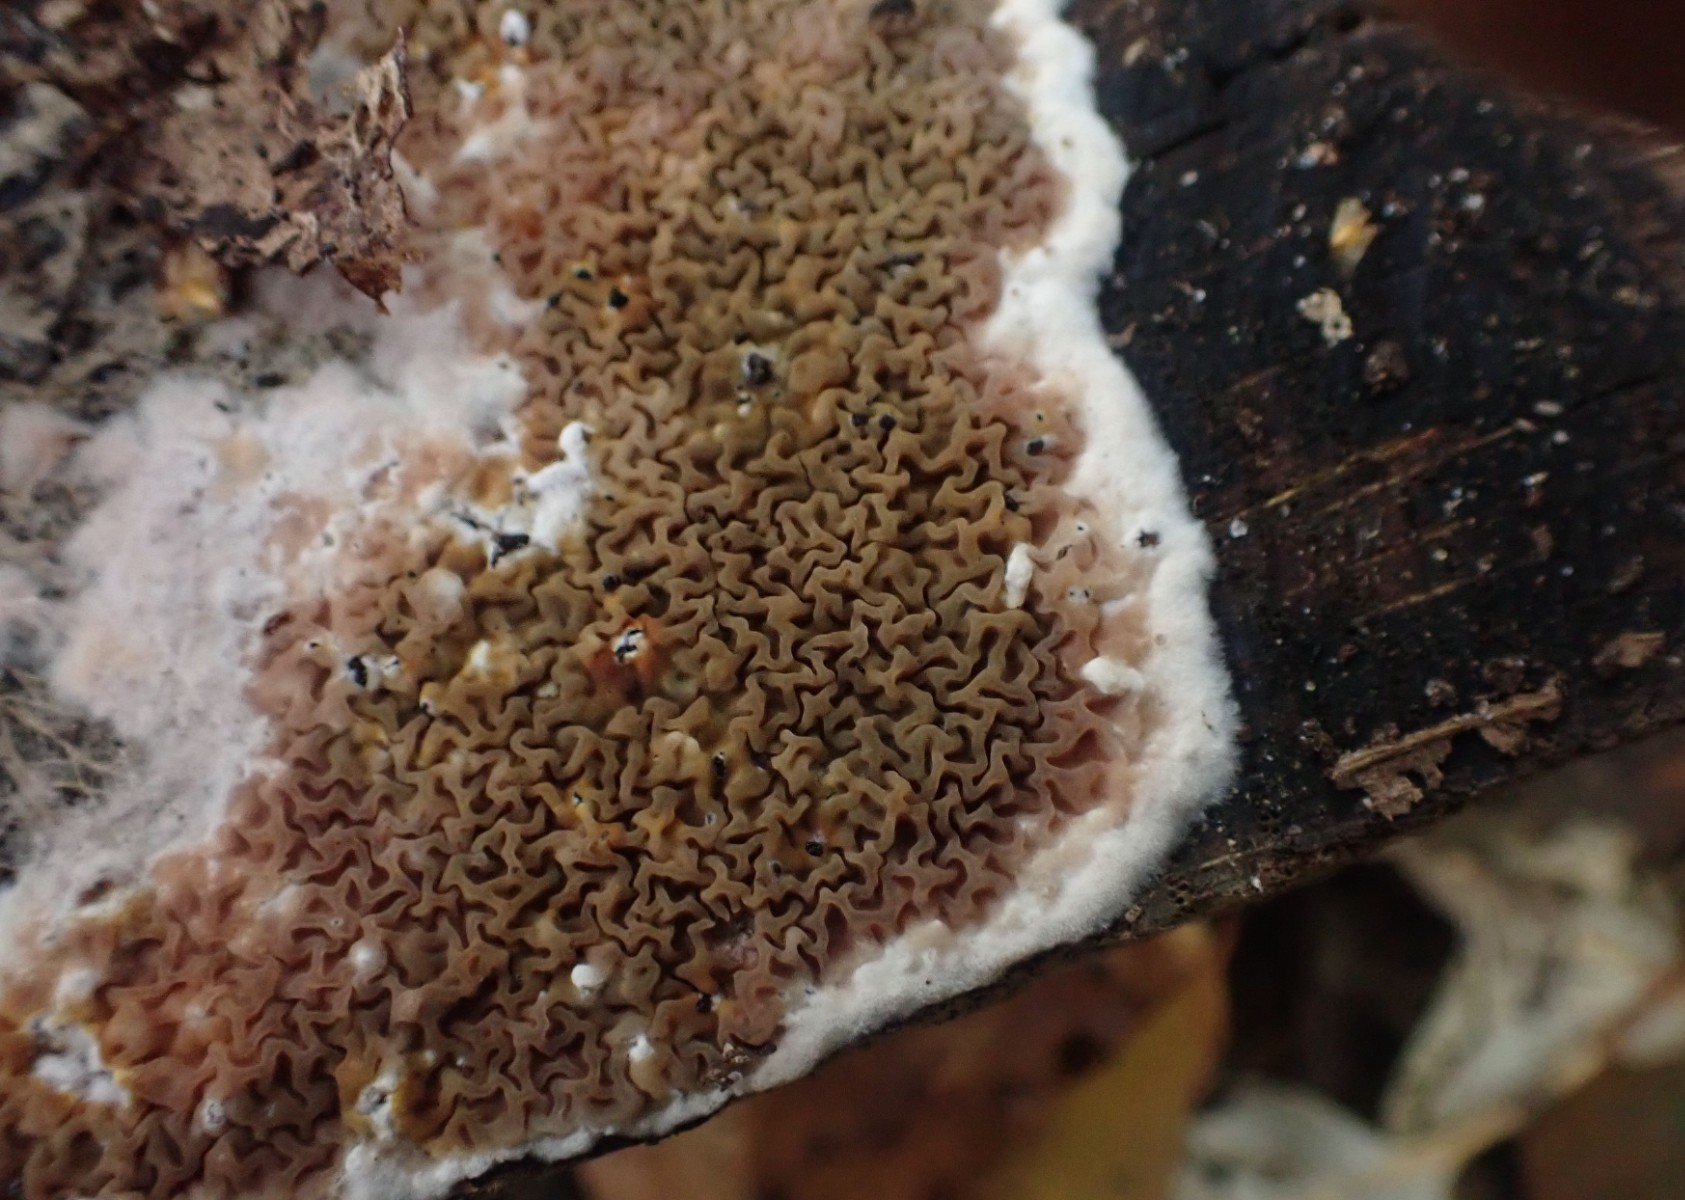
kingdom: Fungi
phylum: Basidiomycota
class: Agaricomycetes
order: Boletales
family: Serpulaceae
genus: Serpula
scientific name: Serpula himantioides
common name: tyndkødet hussvamp
